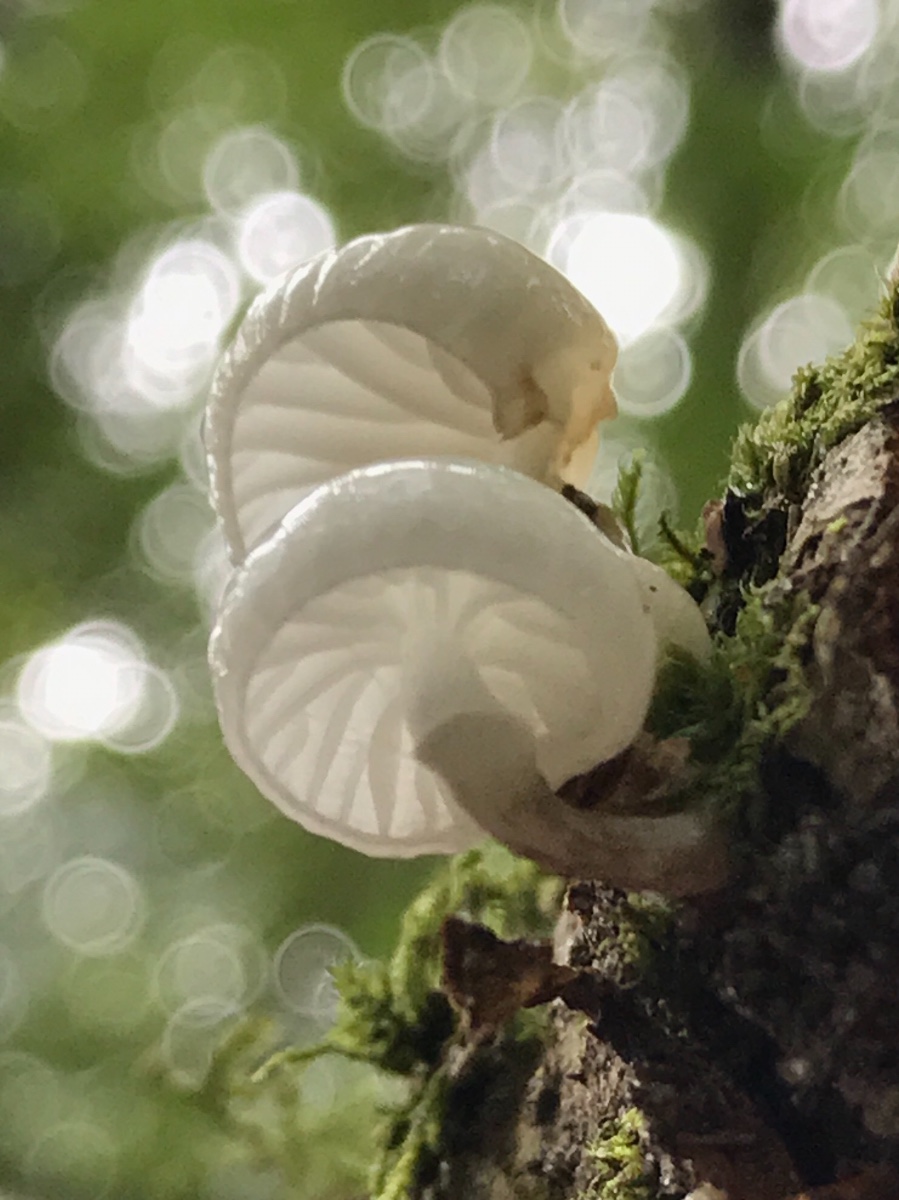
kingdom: Fungi
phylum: Basidiomycota
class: Agaricomycetes
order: Agaricales
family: Physalacriaceae
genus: Mucidula
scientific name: Mucidula mucida
